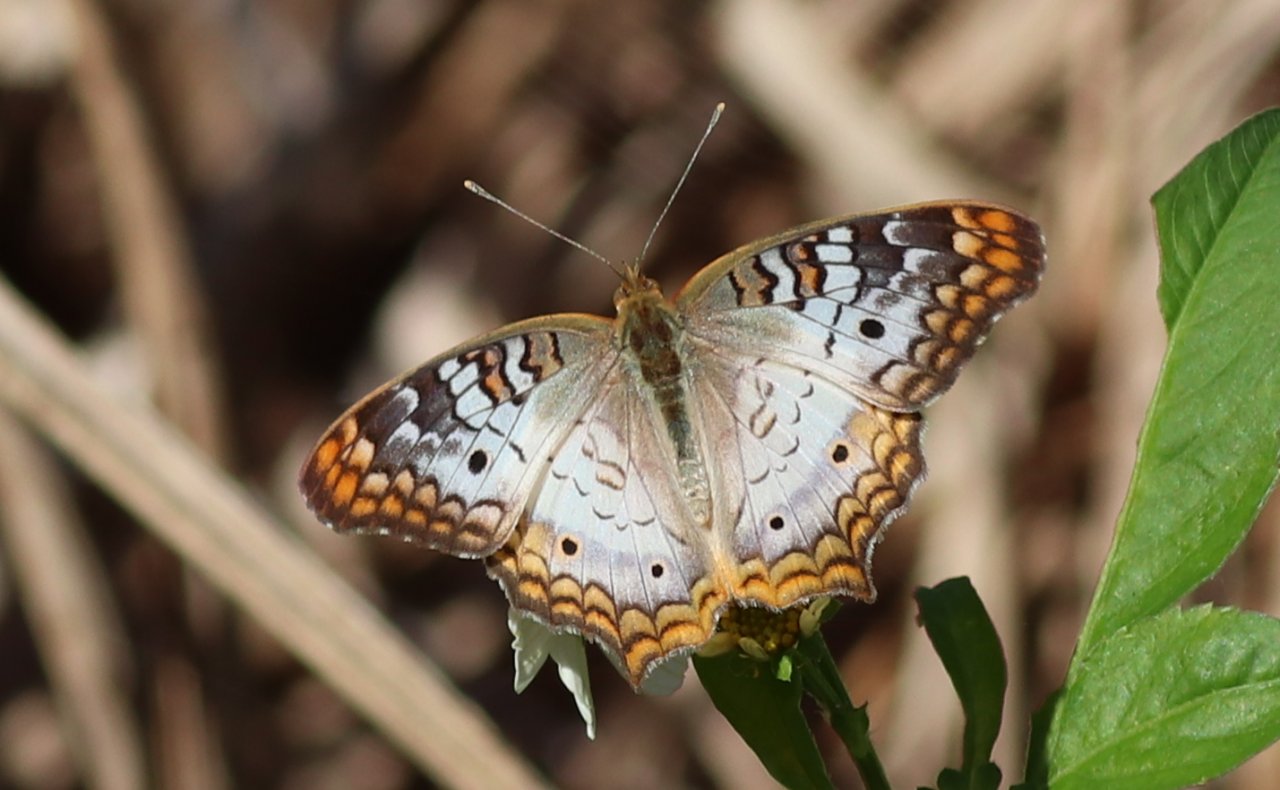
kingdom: Animalia
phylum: Arthropoda
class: Insecta
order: Lepidoptera
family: Nymphalidae
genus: Anartia
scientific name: Anartia jatrophae
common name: White Peacock
